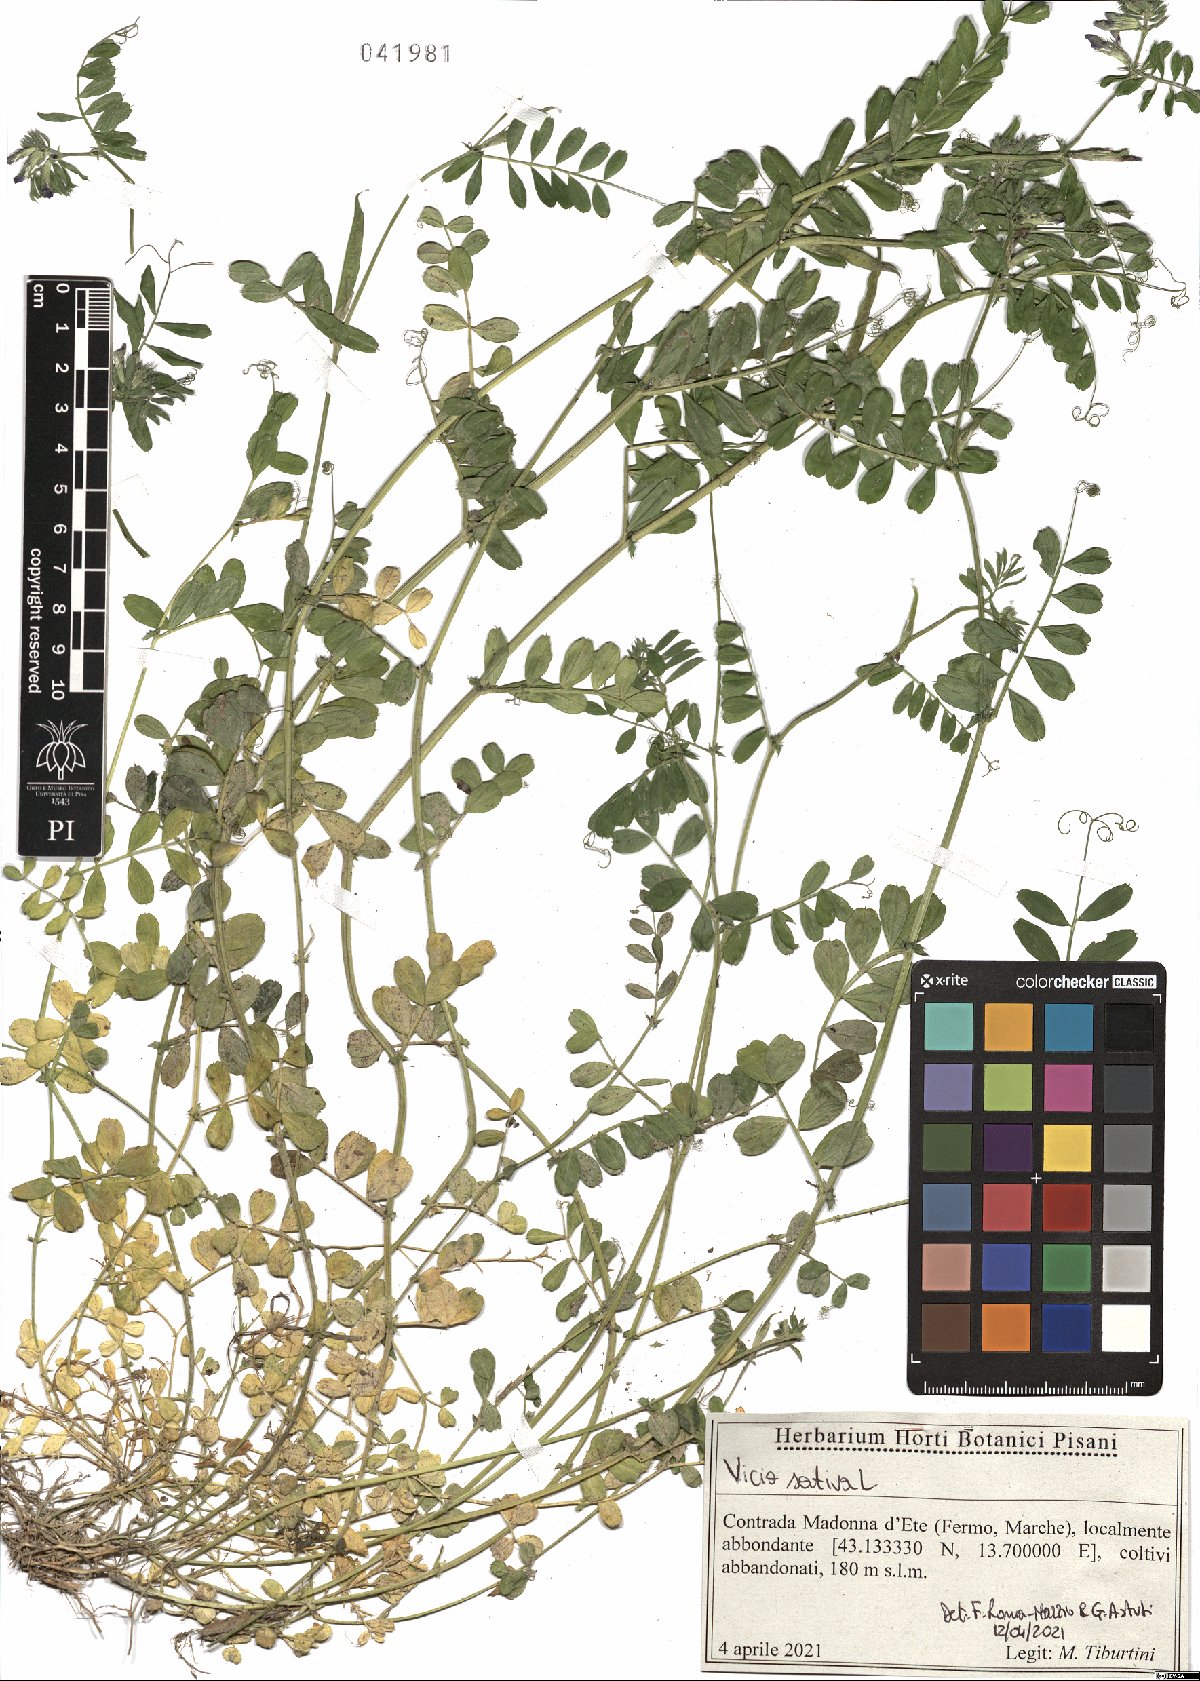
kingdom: Plantae
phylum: Tracheophyta
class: Magnoliopsida
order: Fabales
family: Fabaceae
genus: Vicia
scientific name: Vicia sativa
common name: Garden vetch
